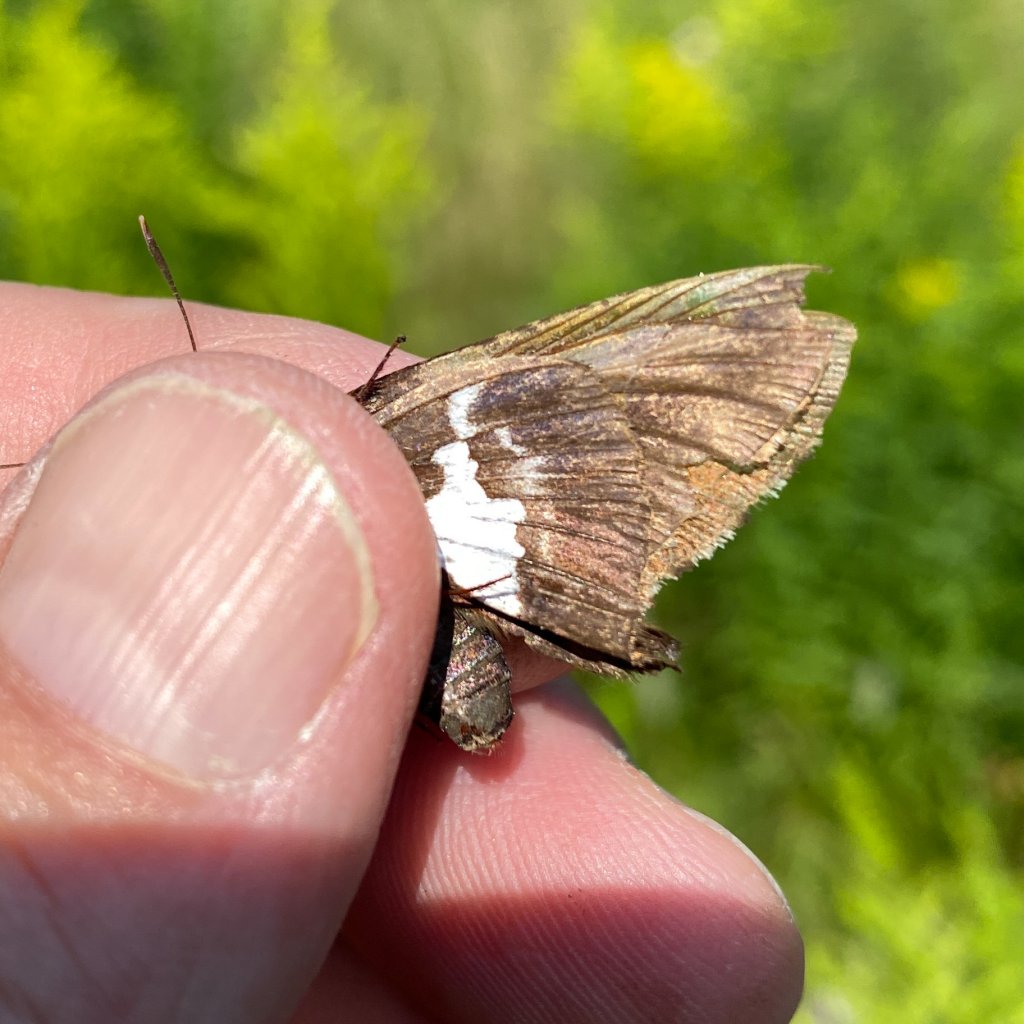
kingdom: Animalia
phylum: Arthropoda
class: Insecta
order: Lepidoptera
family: Hesperiidae
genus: Epargyreus
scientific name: Epargyreus clarus
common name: Silver-spotted Skipper
